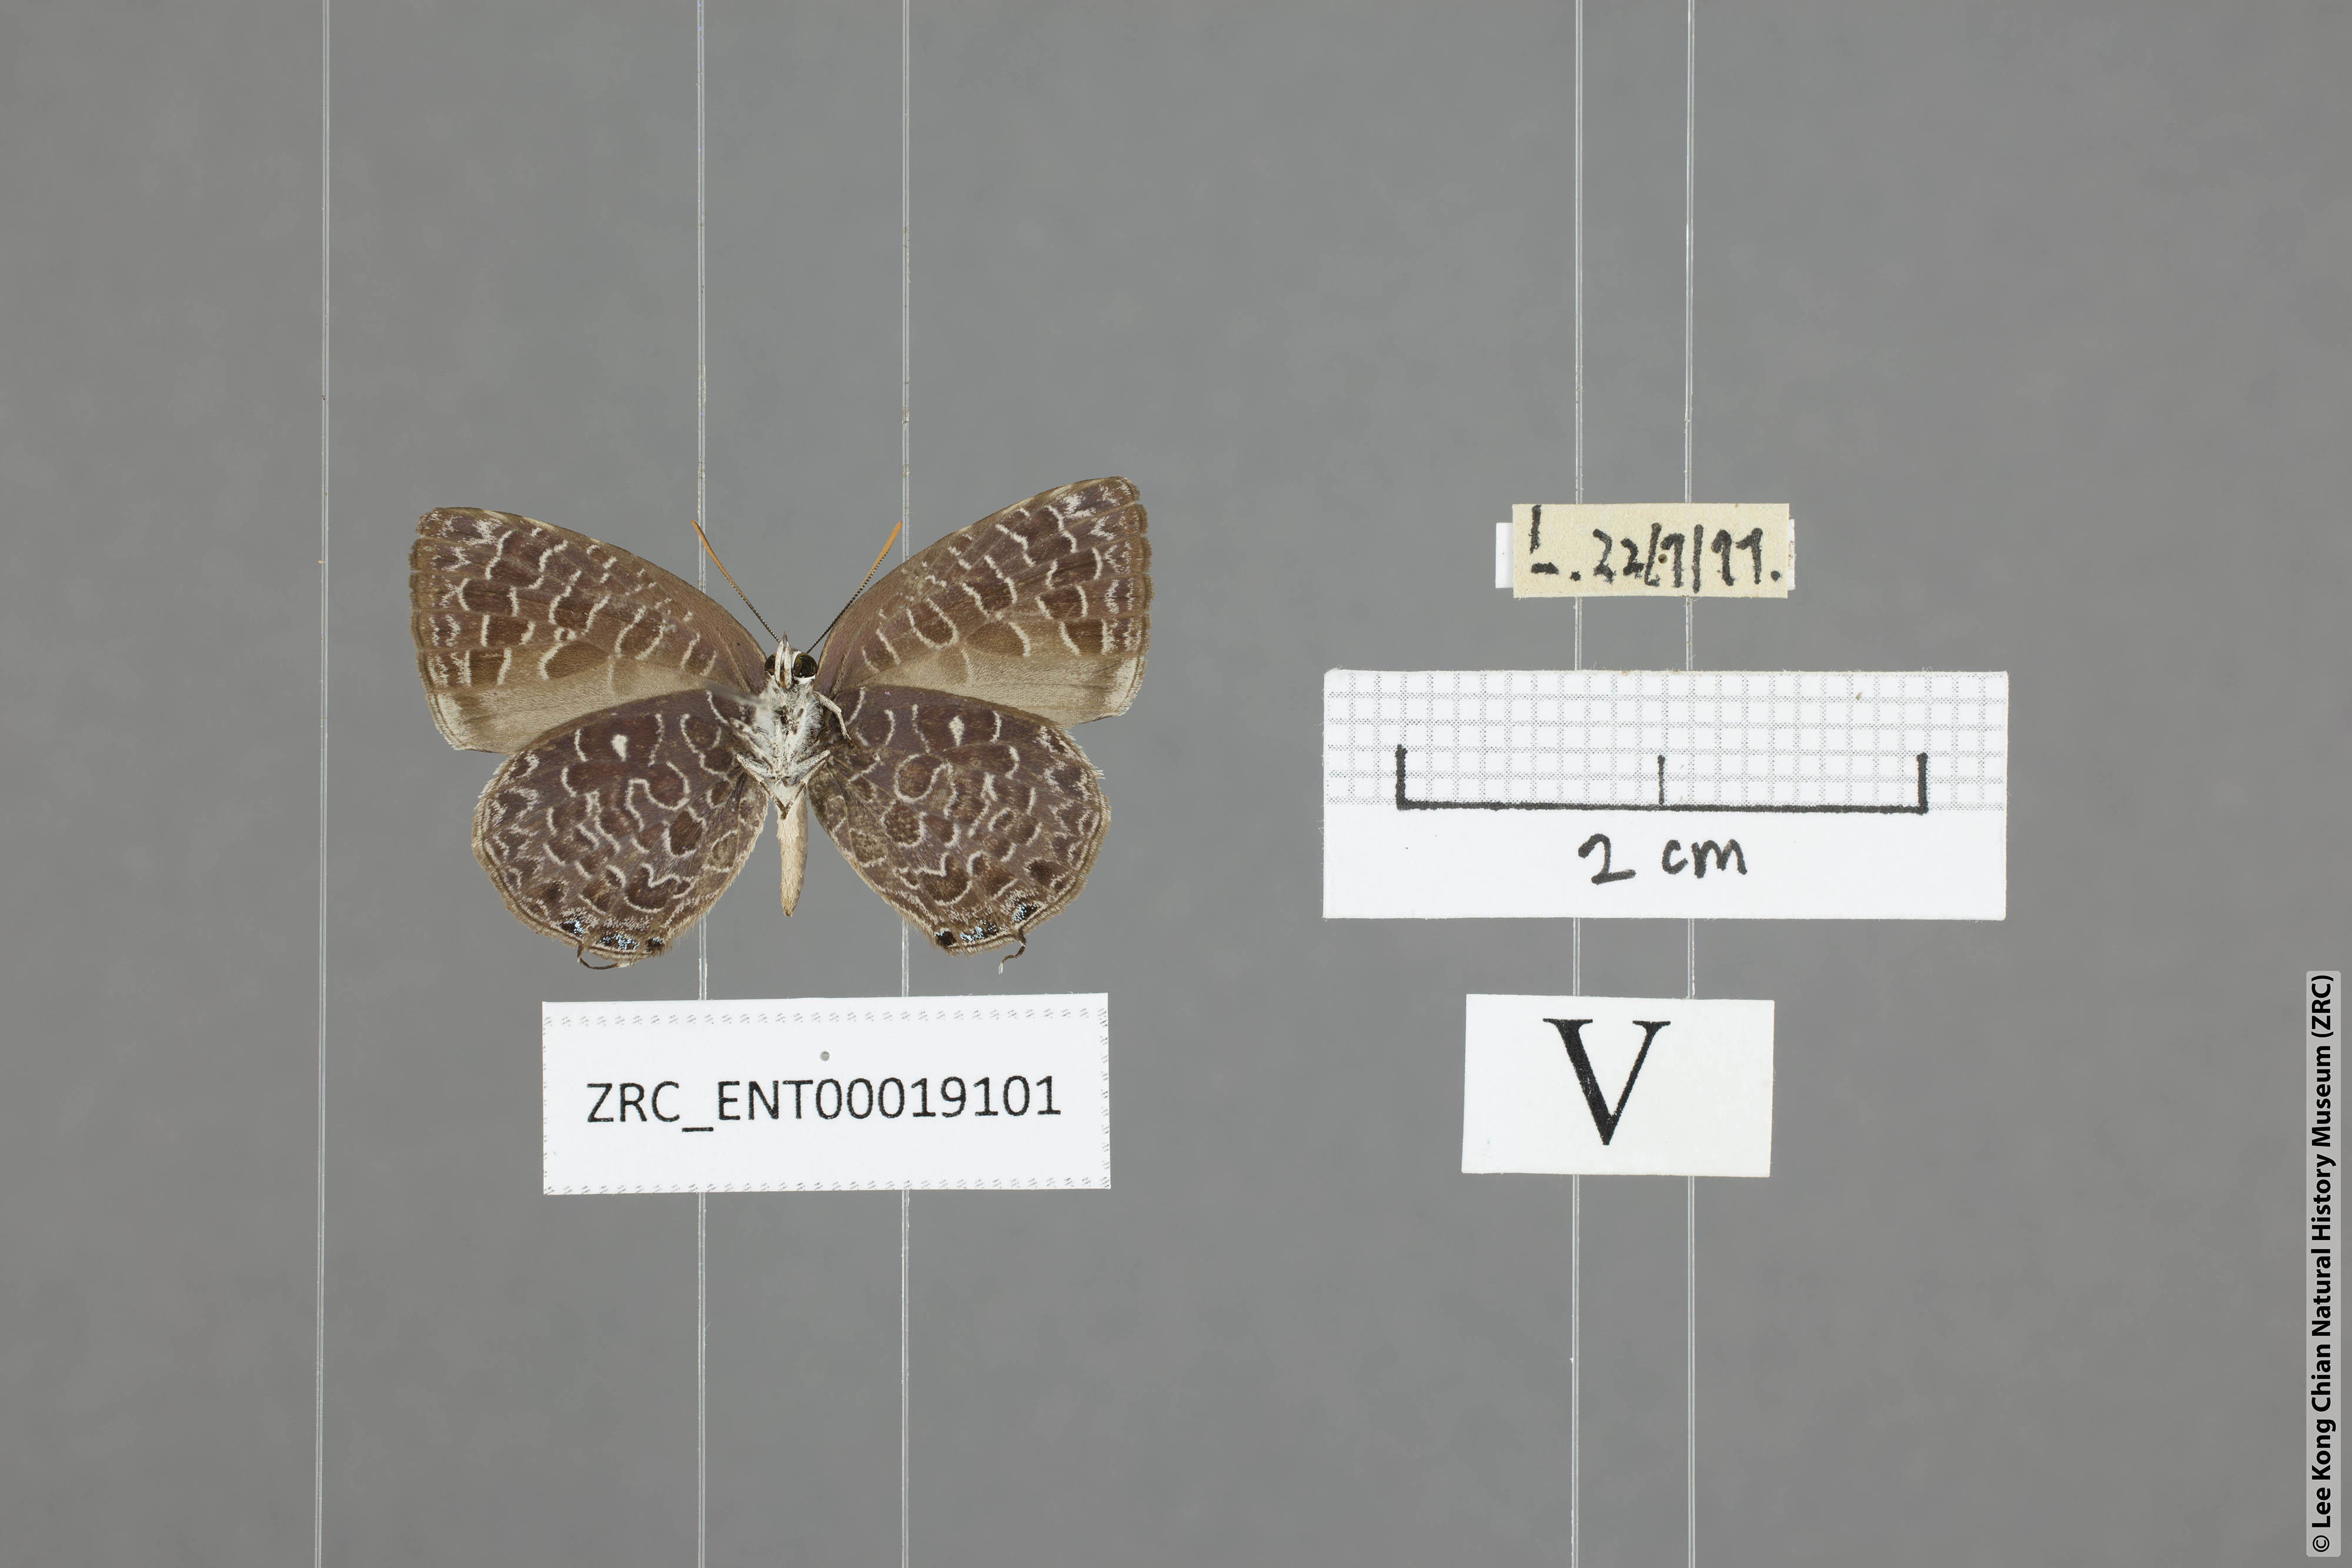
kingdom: Animalia
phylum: Arthropoda
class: Insecta
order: Lepidoptera
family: Lycaenidae
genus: Arhopala
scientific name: Arhopala ammon
